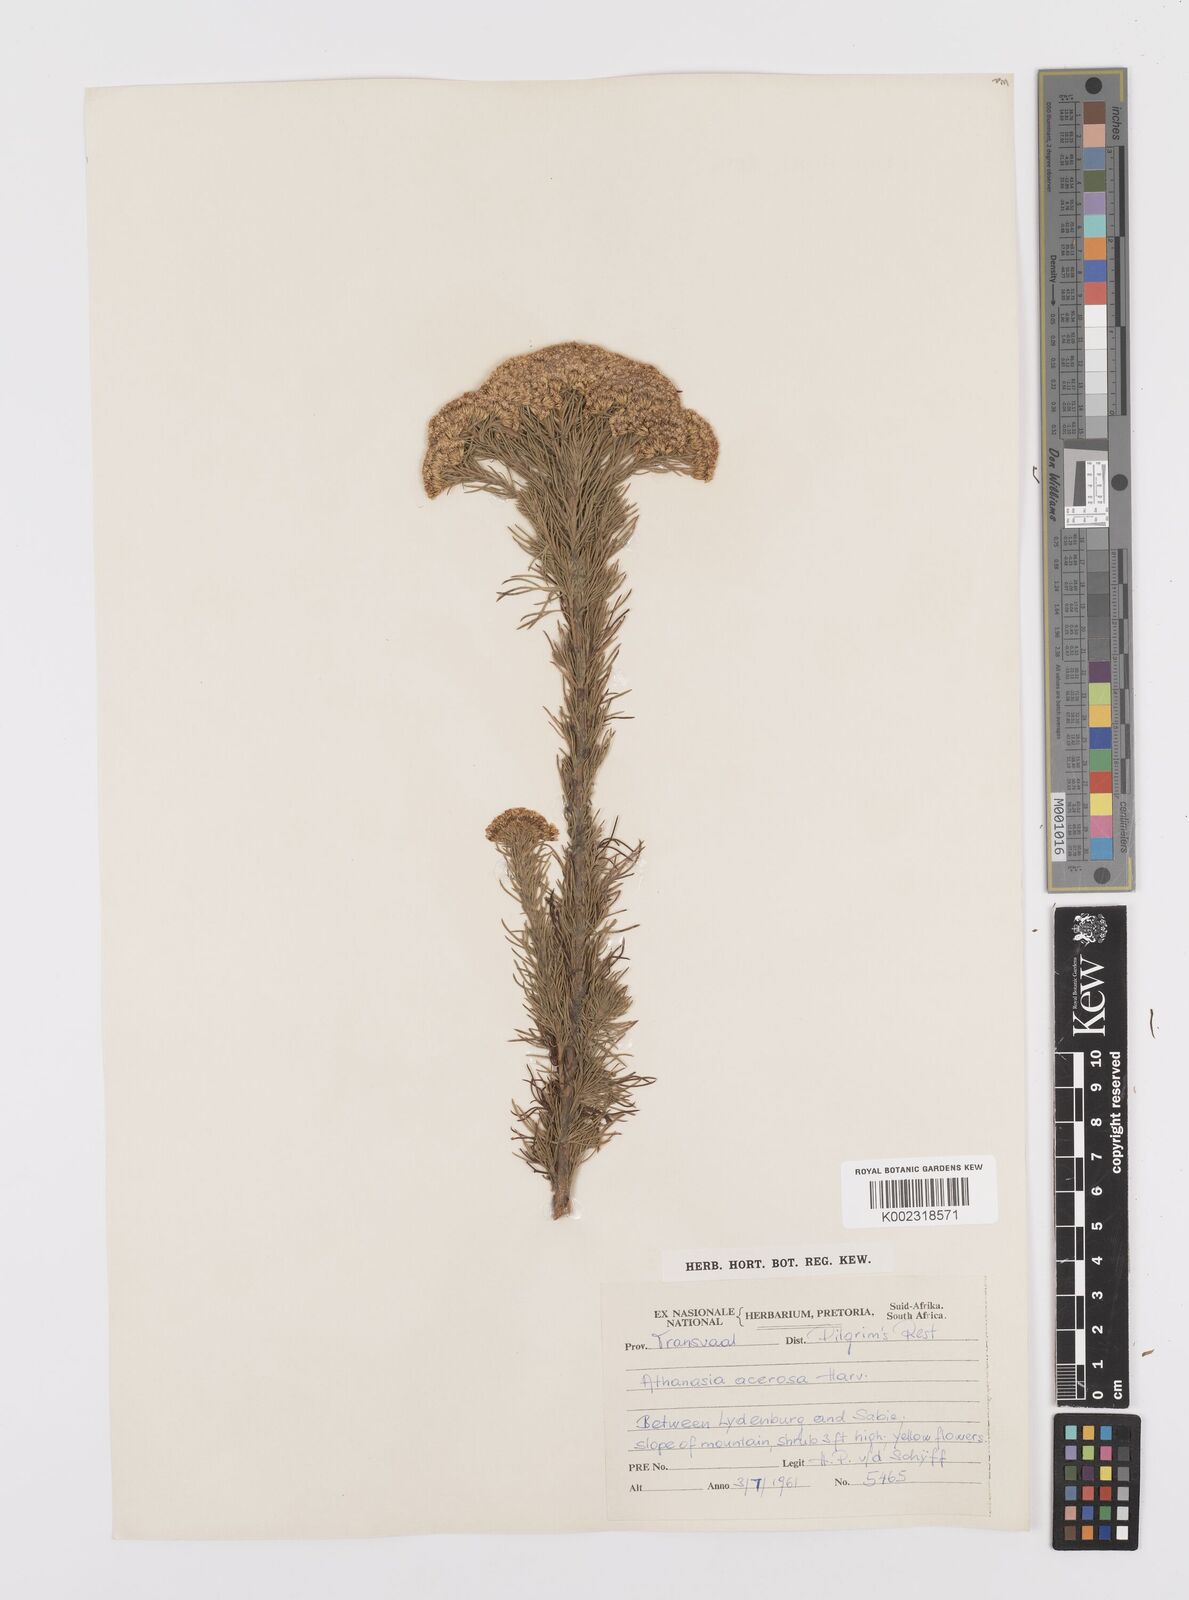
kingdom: Plantae
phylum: Tracheophyta
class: Magnoliopsida
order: Asterales
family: Asteraceae
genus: Phymaspermum
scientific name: Phymaspermum acerosum
